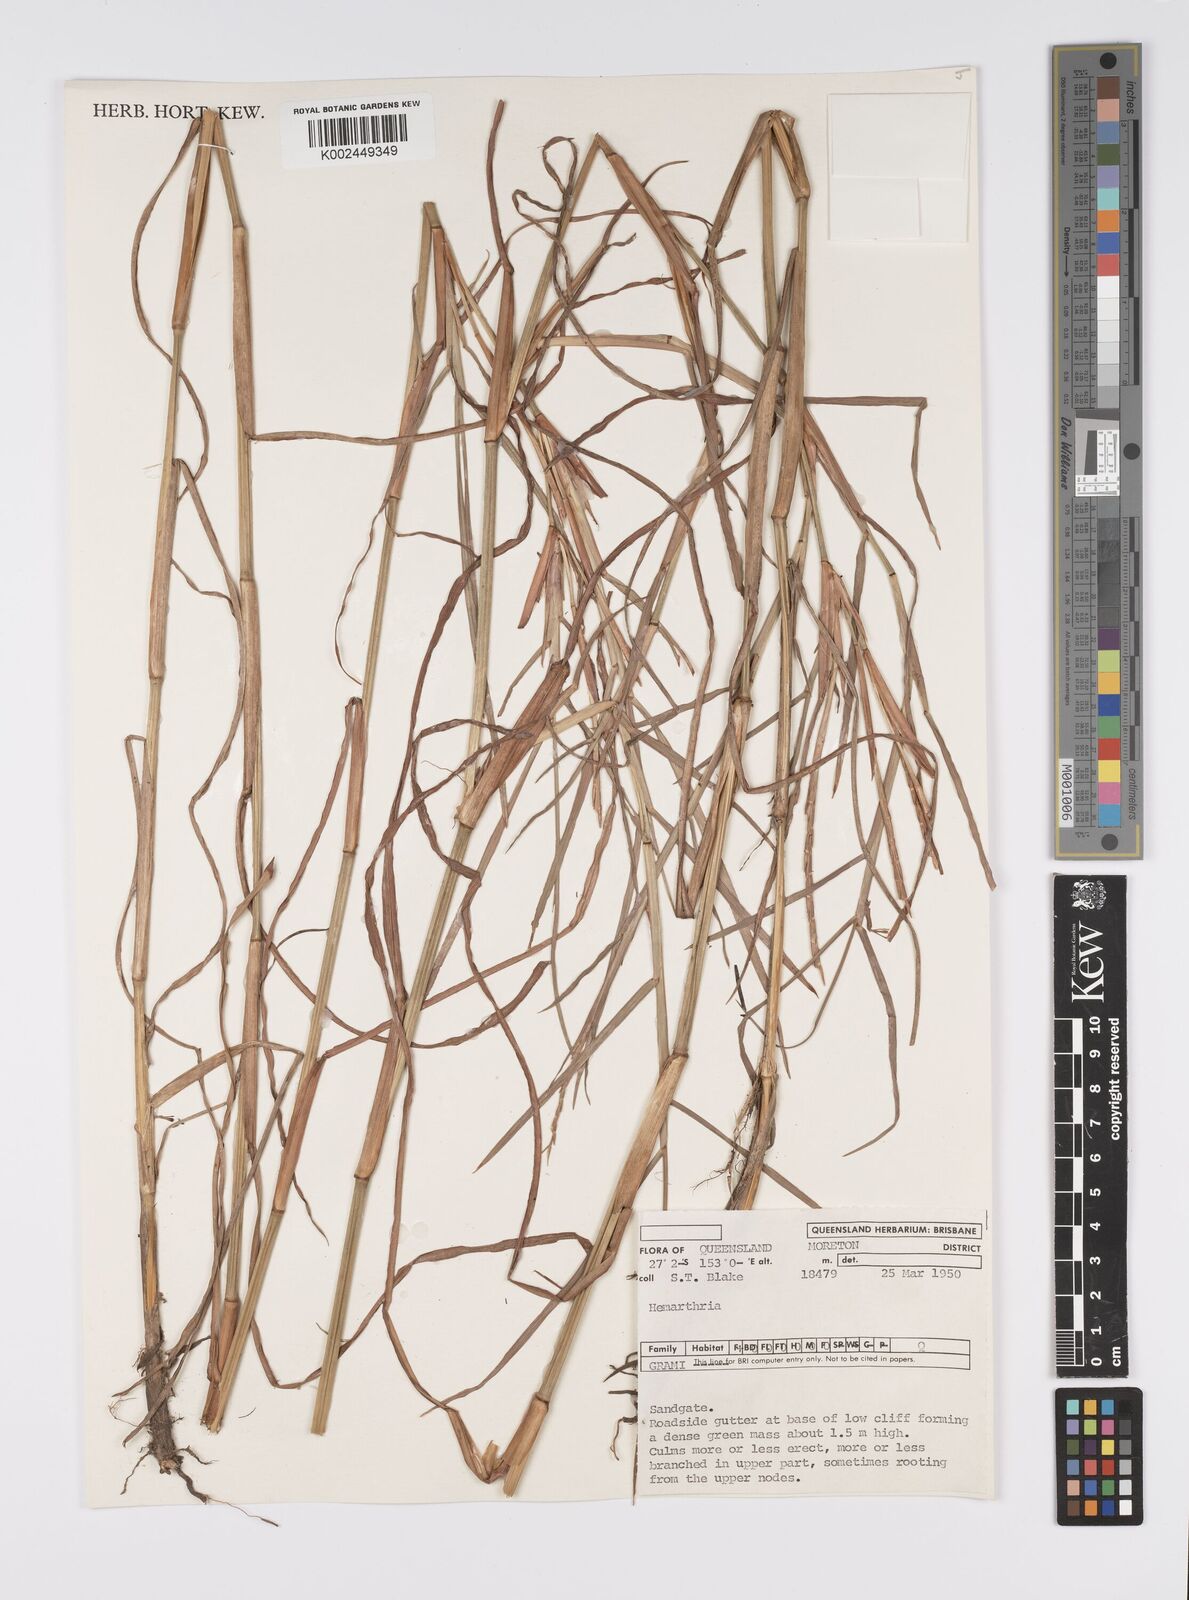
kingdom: Plantae
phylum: Tracheophyta
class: Liliopsida
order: Poales
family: Poaceae
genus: Hemarthria
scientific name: Hemarthria uncinata
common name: Matgrass
